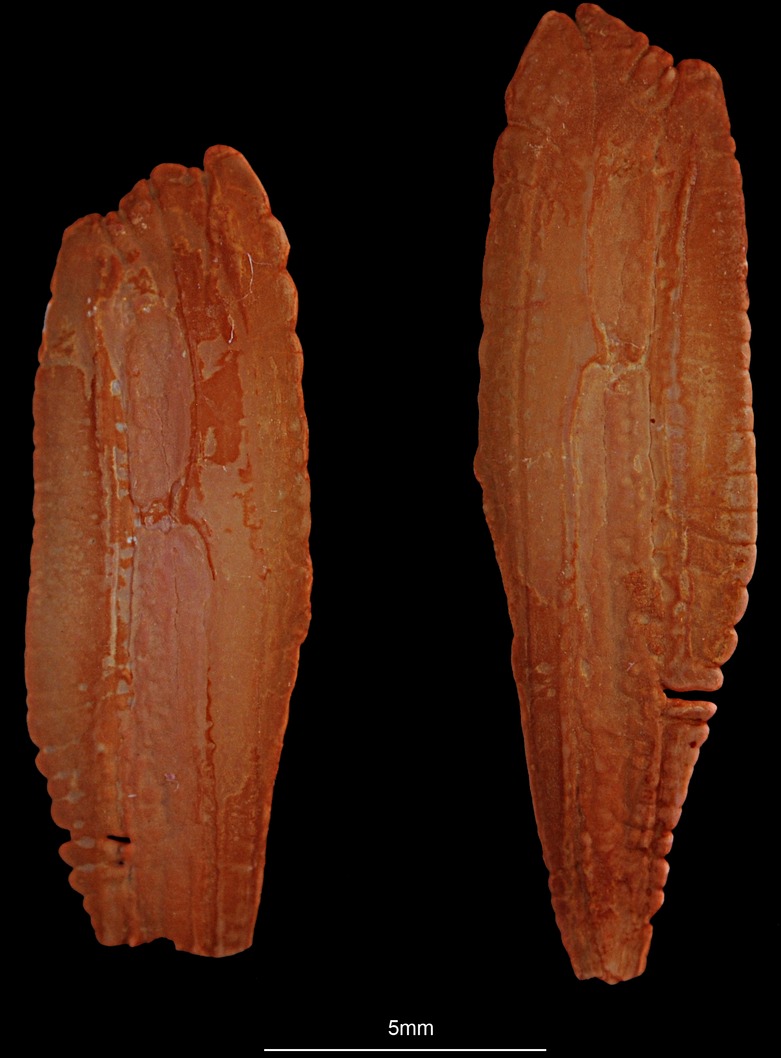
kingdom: Animalia
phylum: Chordata
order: Gadiformes
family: Gadidae
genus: Merlangius
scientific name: Merlangius merlangus
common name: Whiting
